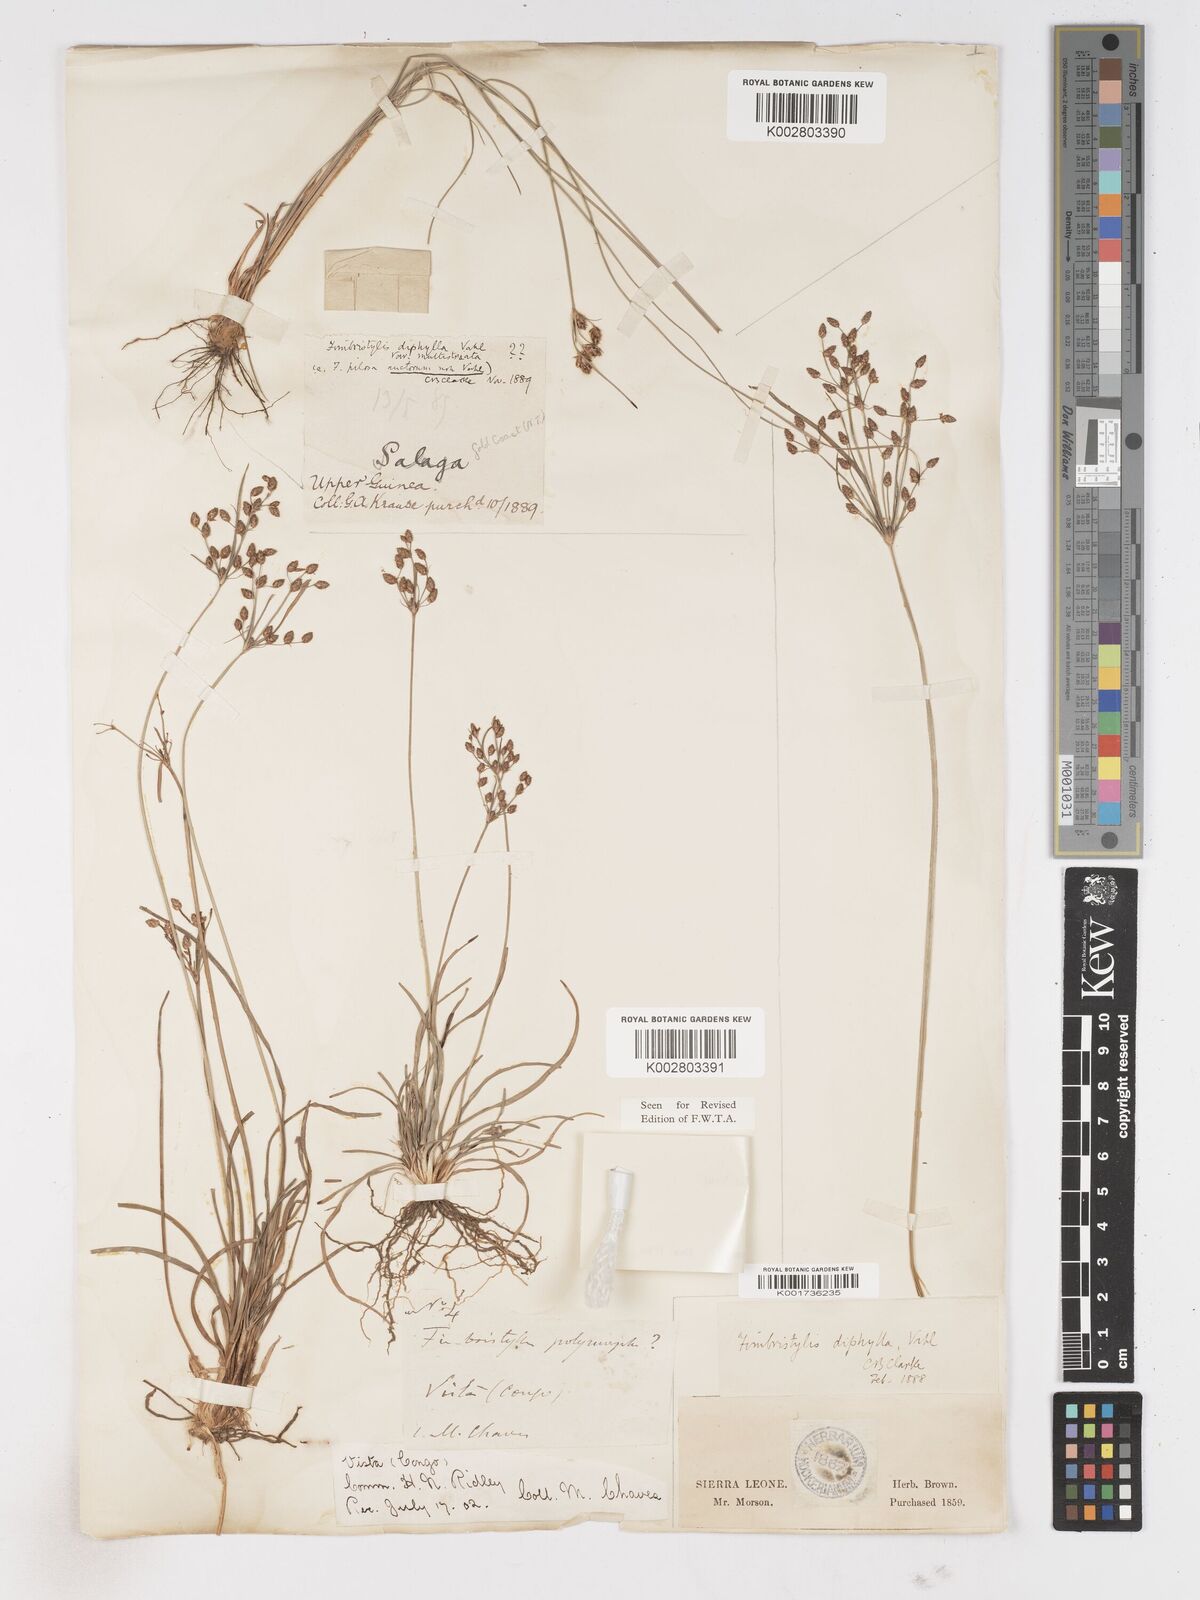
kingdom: Plantae
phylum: Tracheophyta
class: Liliopsida
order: Poales
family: Cyperaceae
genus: Fimbristylis
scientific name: Fimbristylis dichotoma
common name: Forked fimbry
